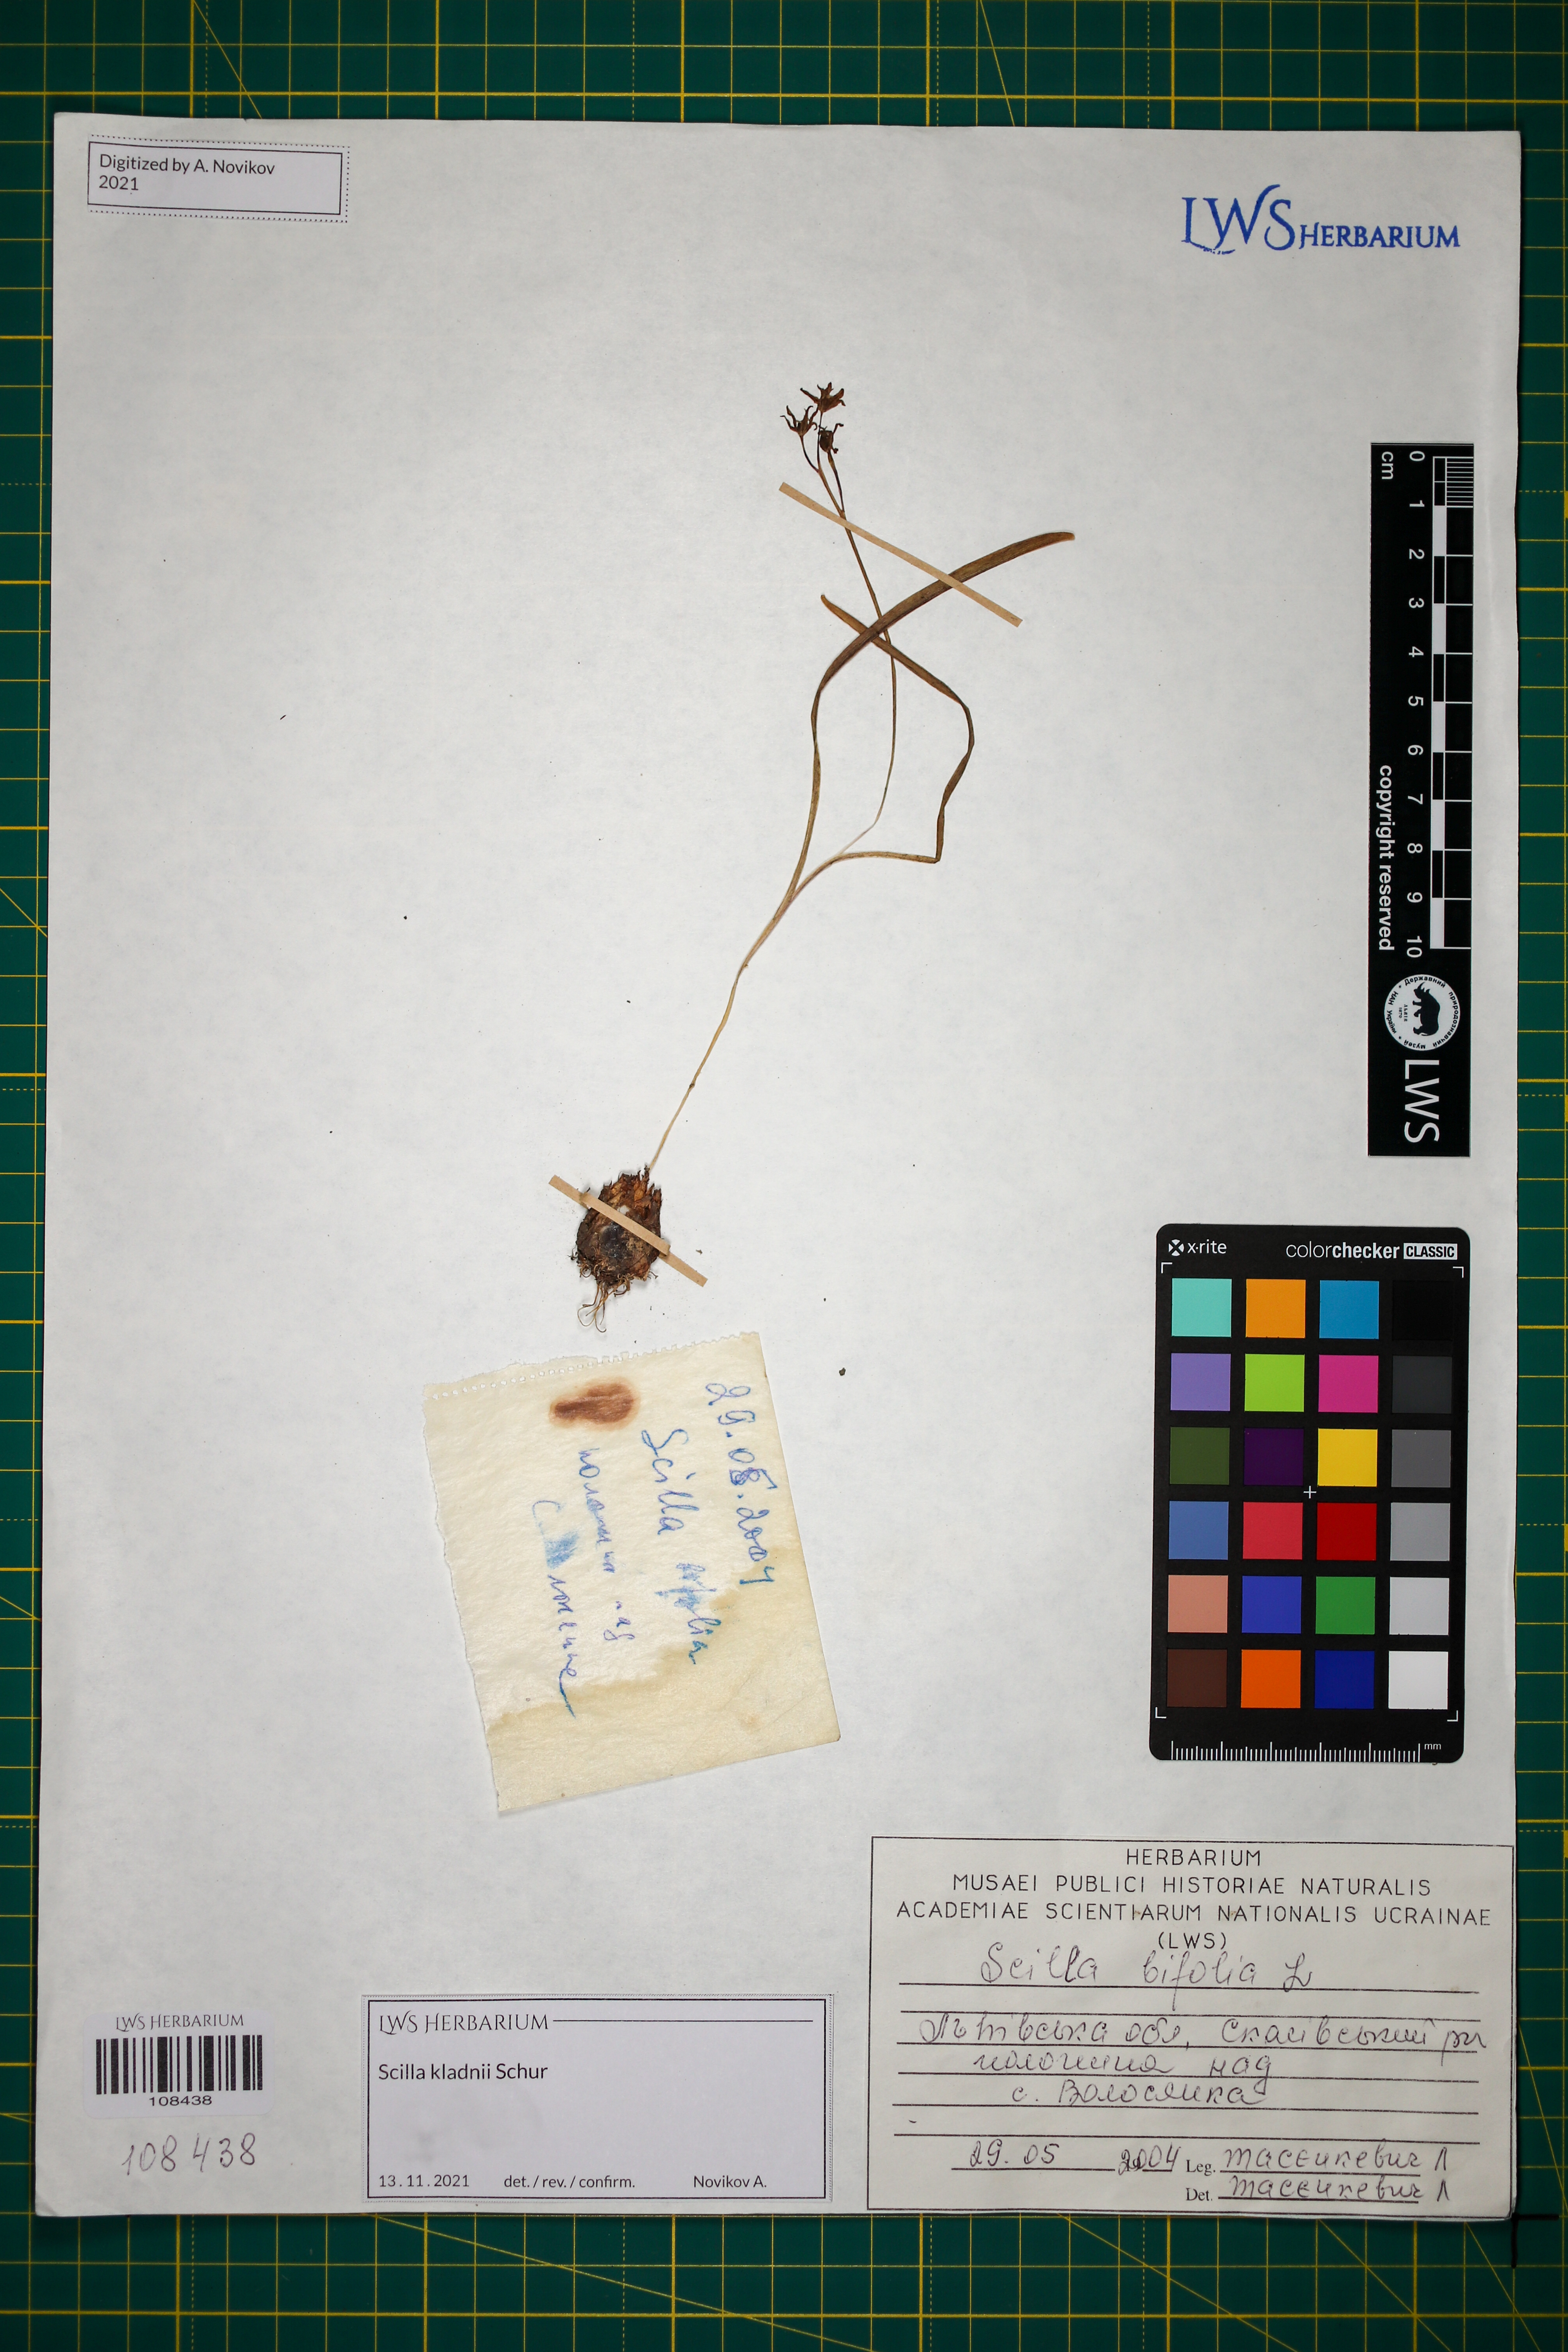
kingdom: Plantae
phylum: Tracheophyta
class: Liliopsida
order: Asparagales
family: Asparagaceae
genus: Scilla
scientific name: Scilla kladnii
